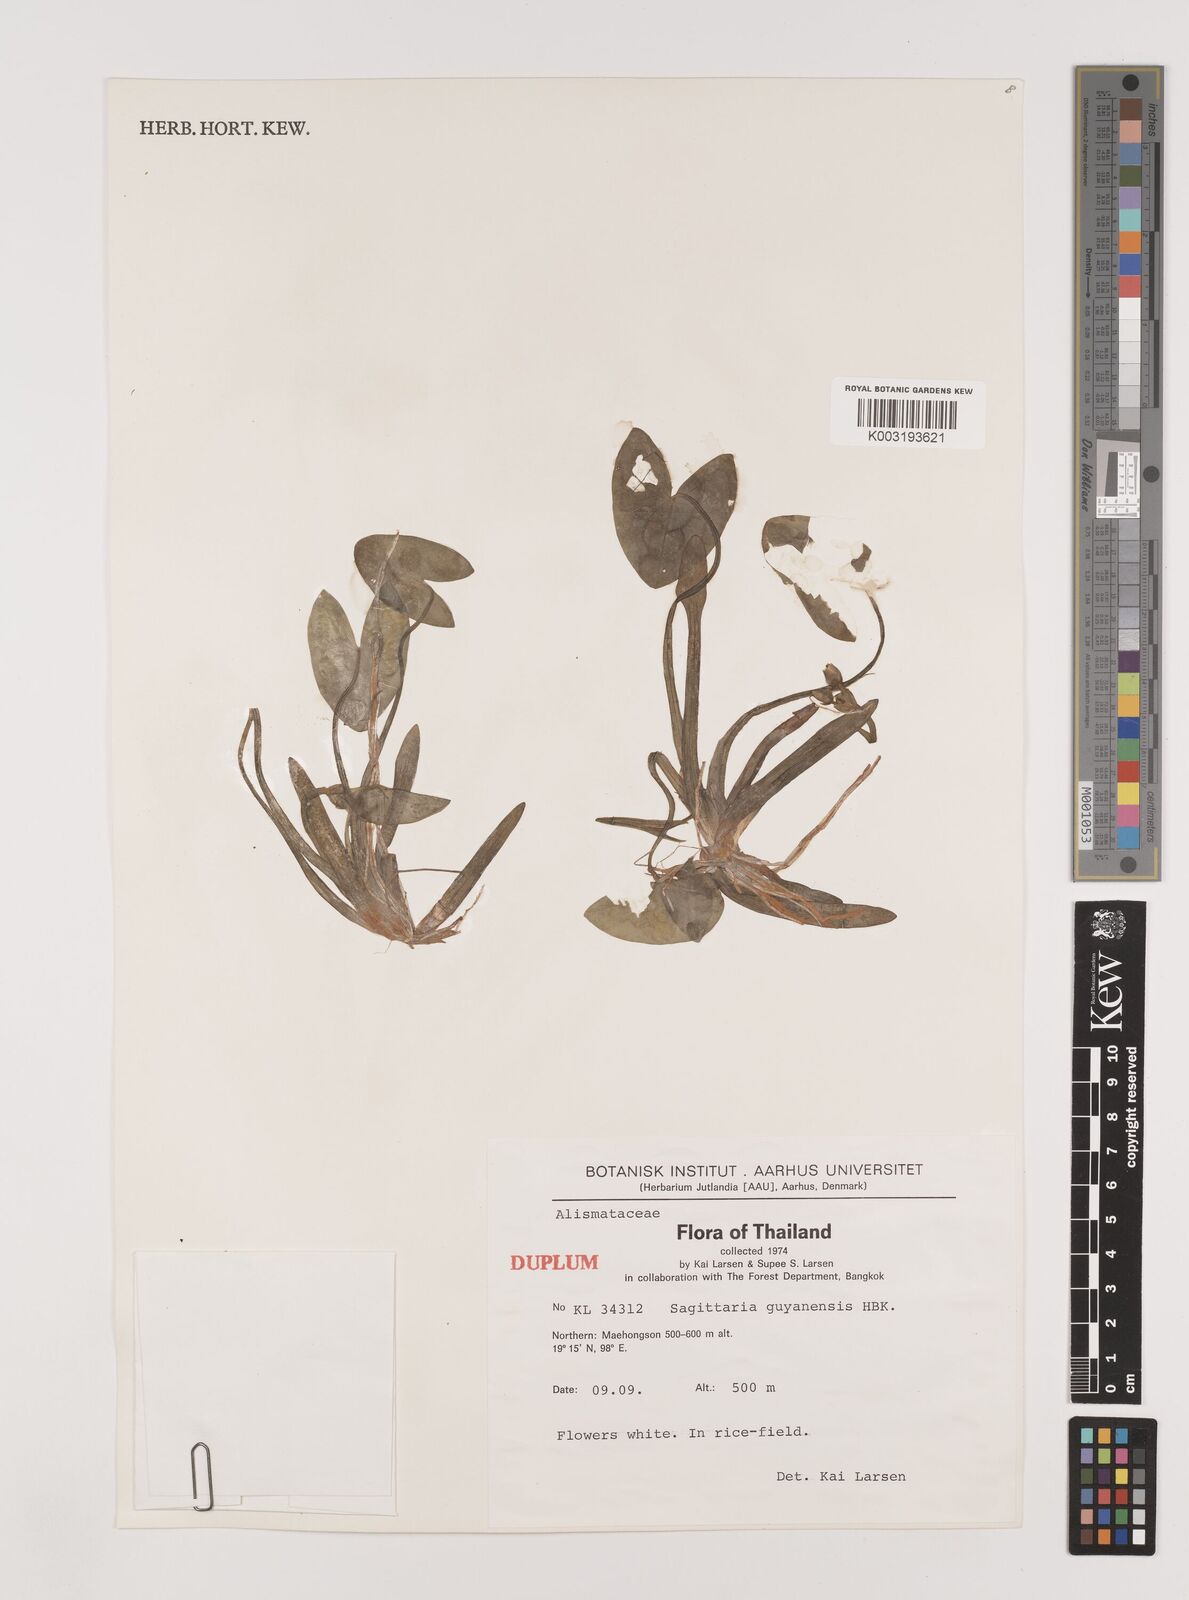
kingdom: Plantae
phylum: Tracheophyta
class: Liliopsida
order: Alismatales
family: Alismataceae
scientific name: Alismataceae
